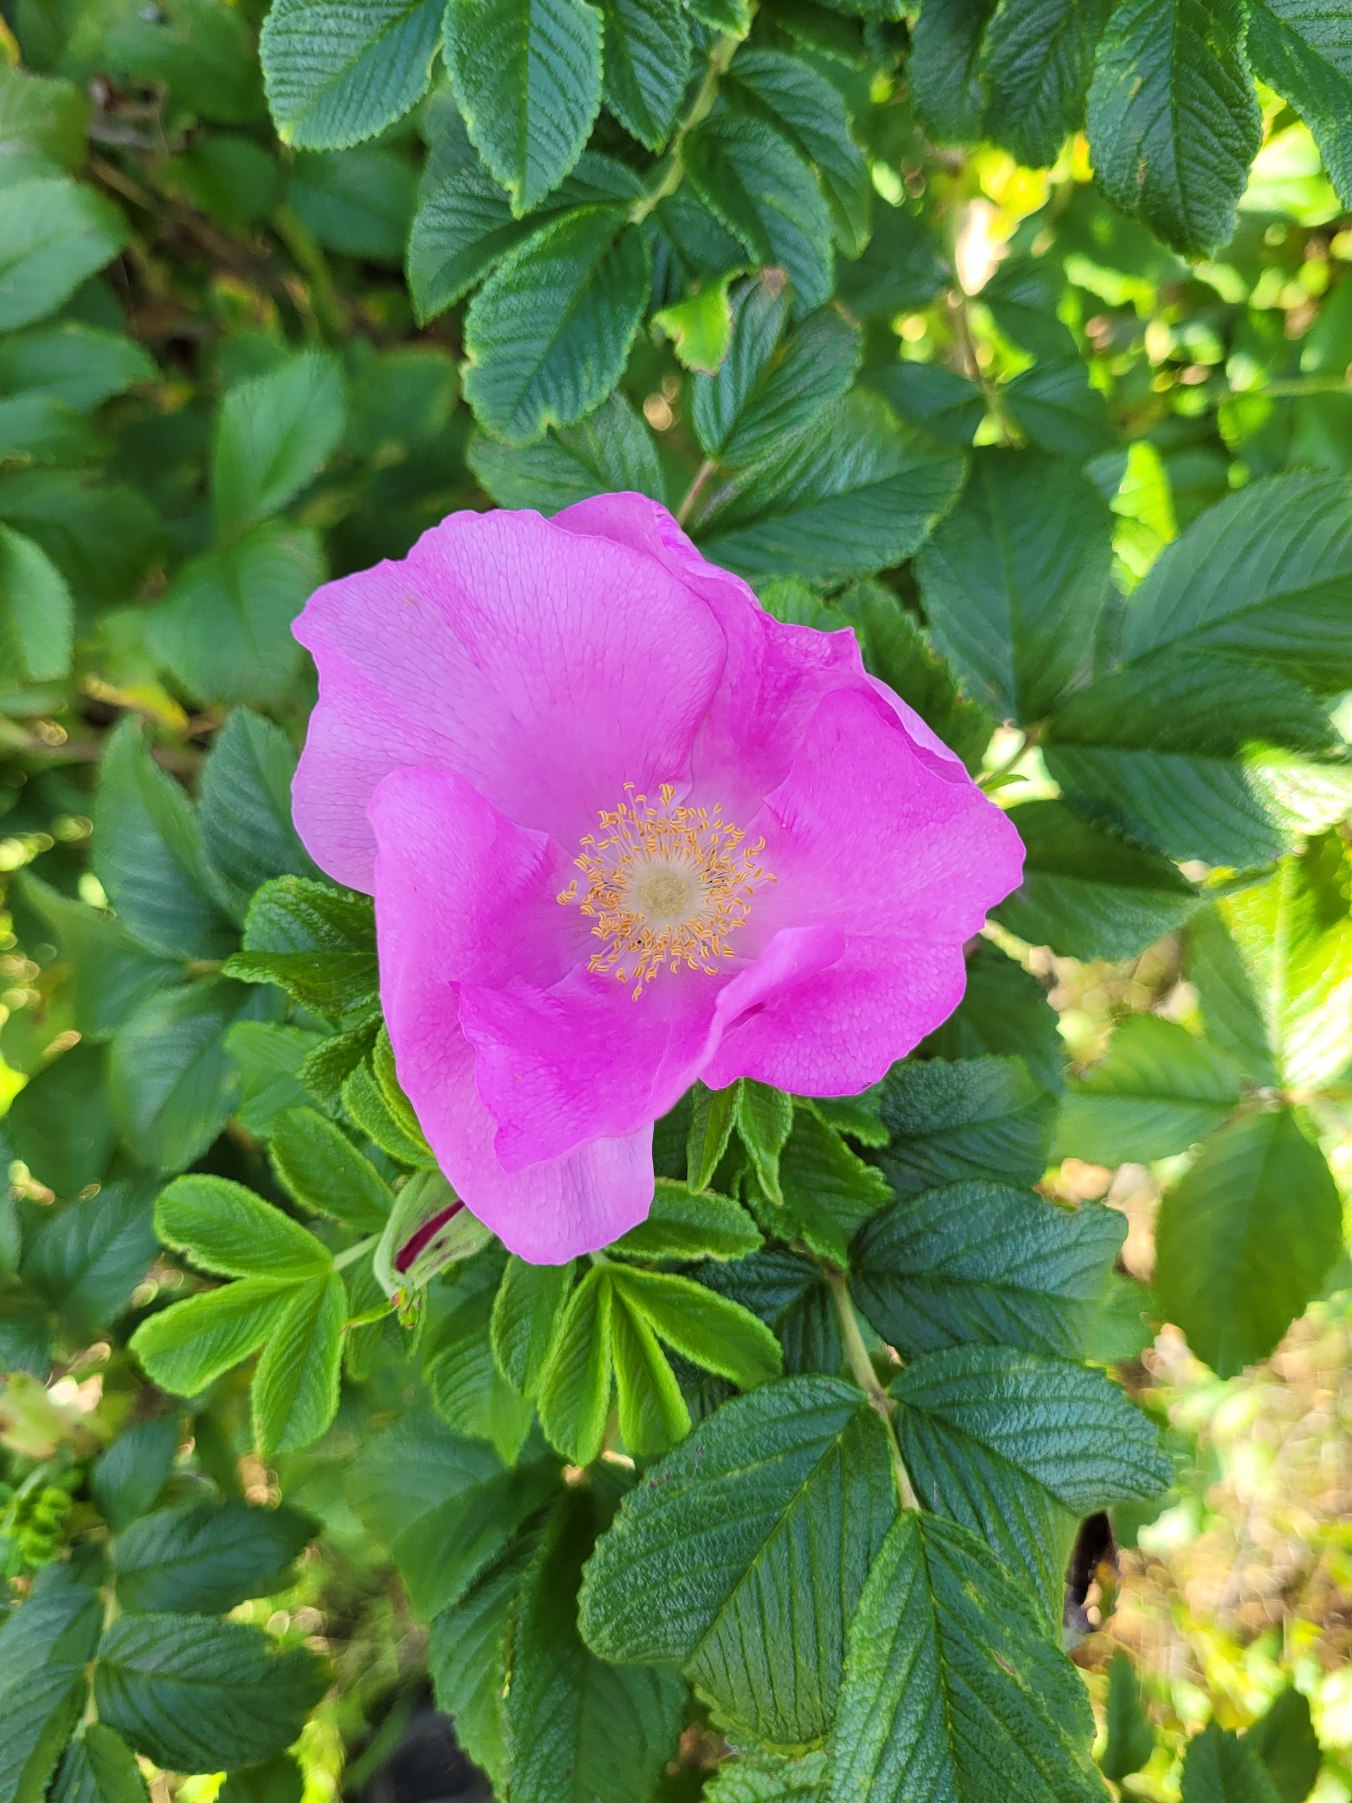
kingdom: Plantae
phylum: Tracheophyta
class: Magnoliopsida
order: Rosales
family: Rosaceae
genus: Rosa
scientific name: Rosa rugosa
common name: Rynket rose
